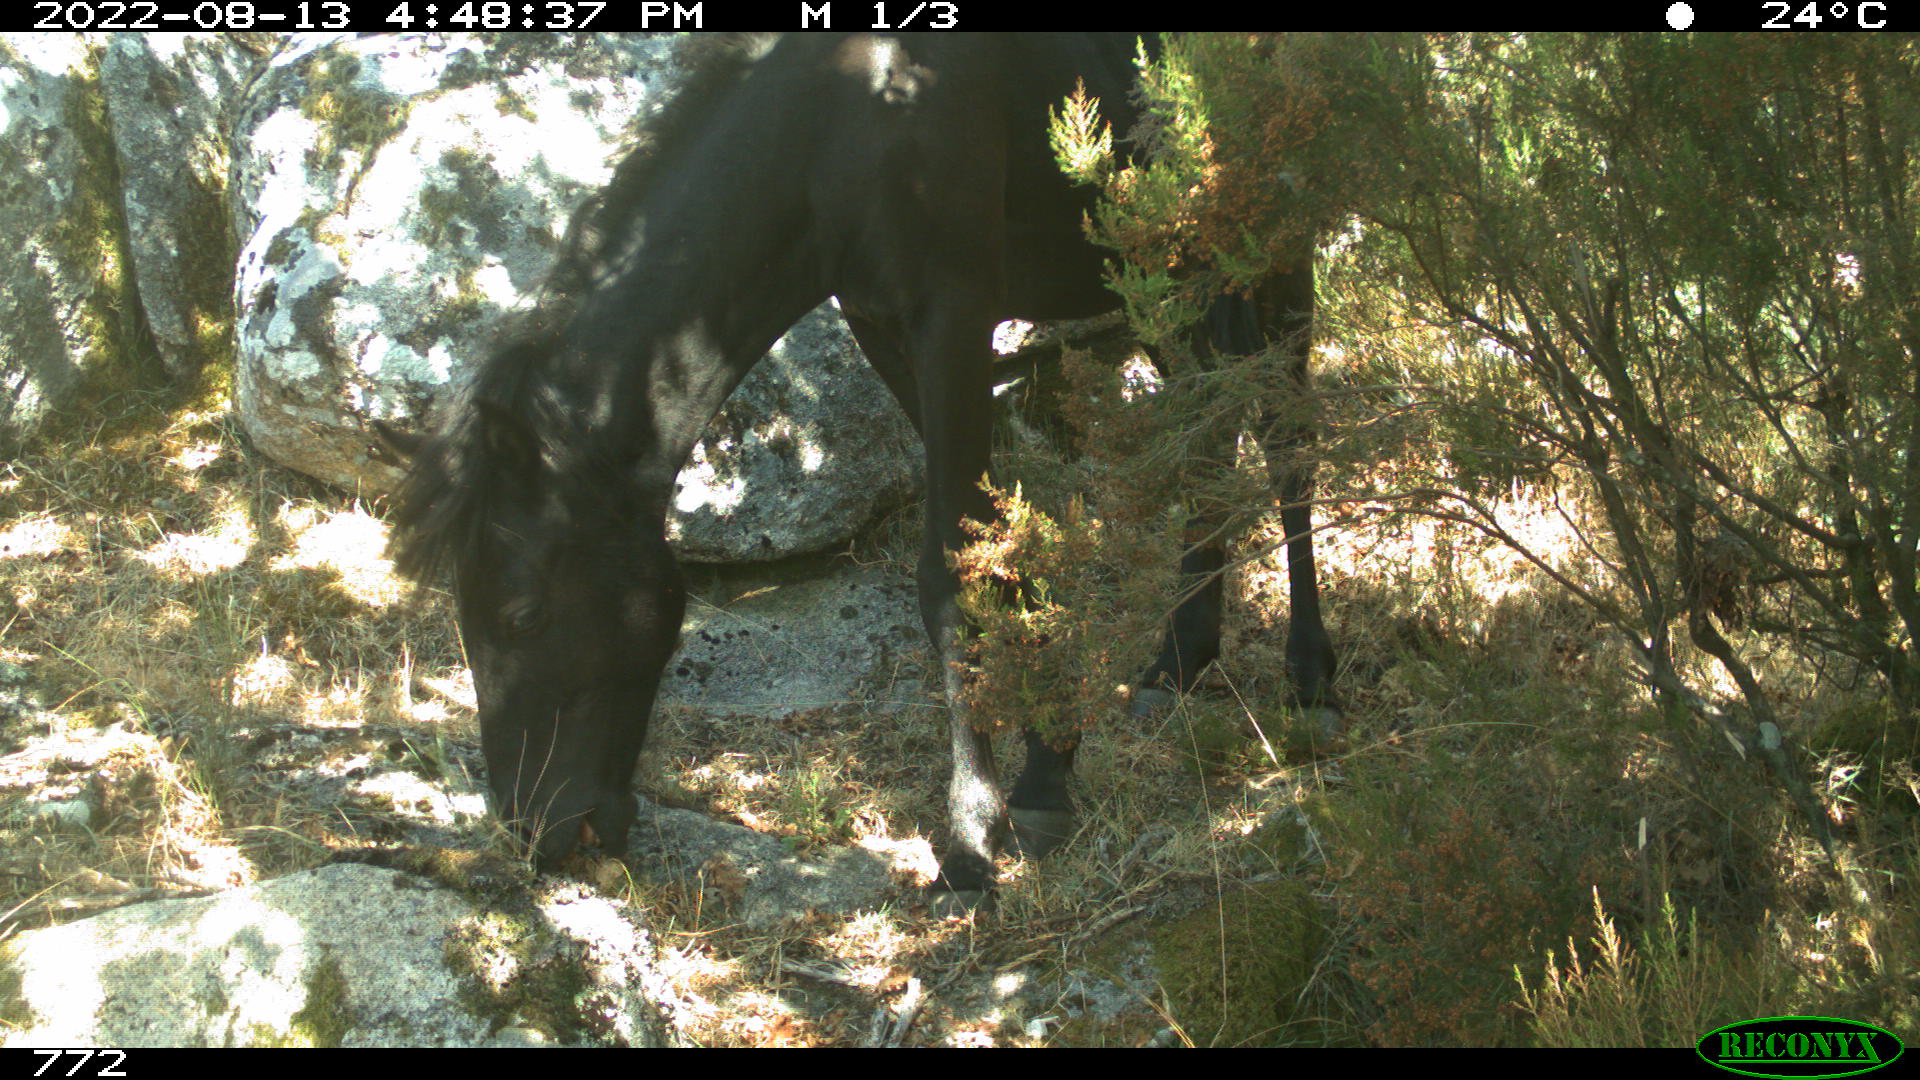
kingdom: Animalia
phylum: Chordata
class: Mammalia
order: Perissodactyla
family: Equidae
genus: Equus
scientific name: Equus caballus
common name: Horse
